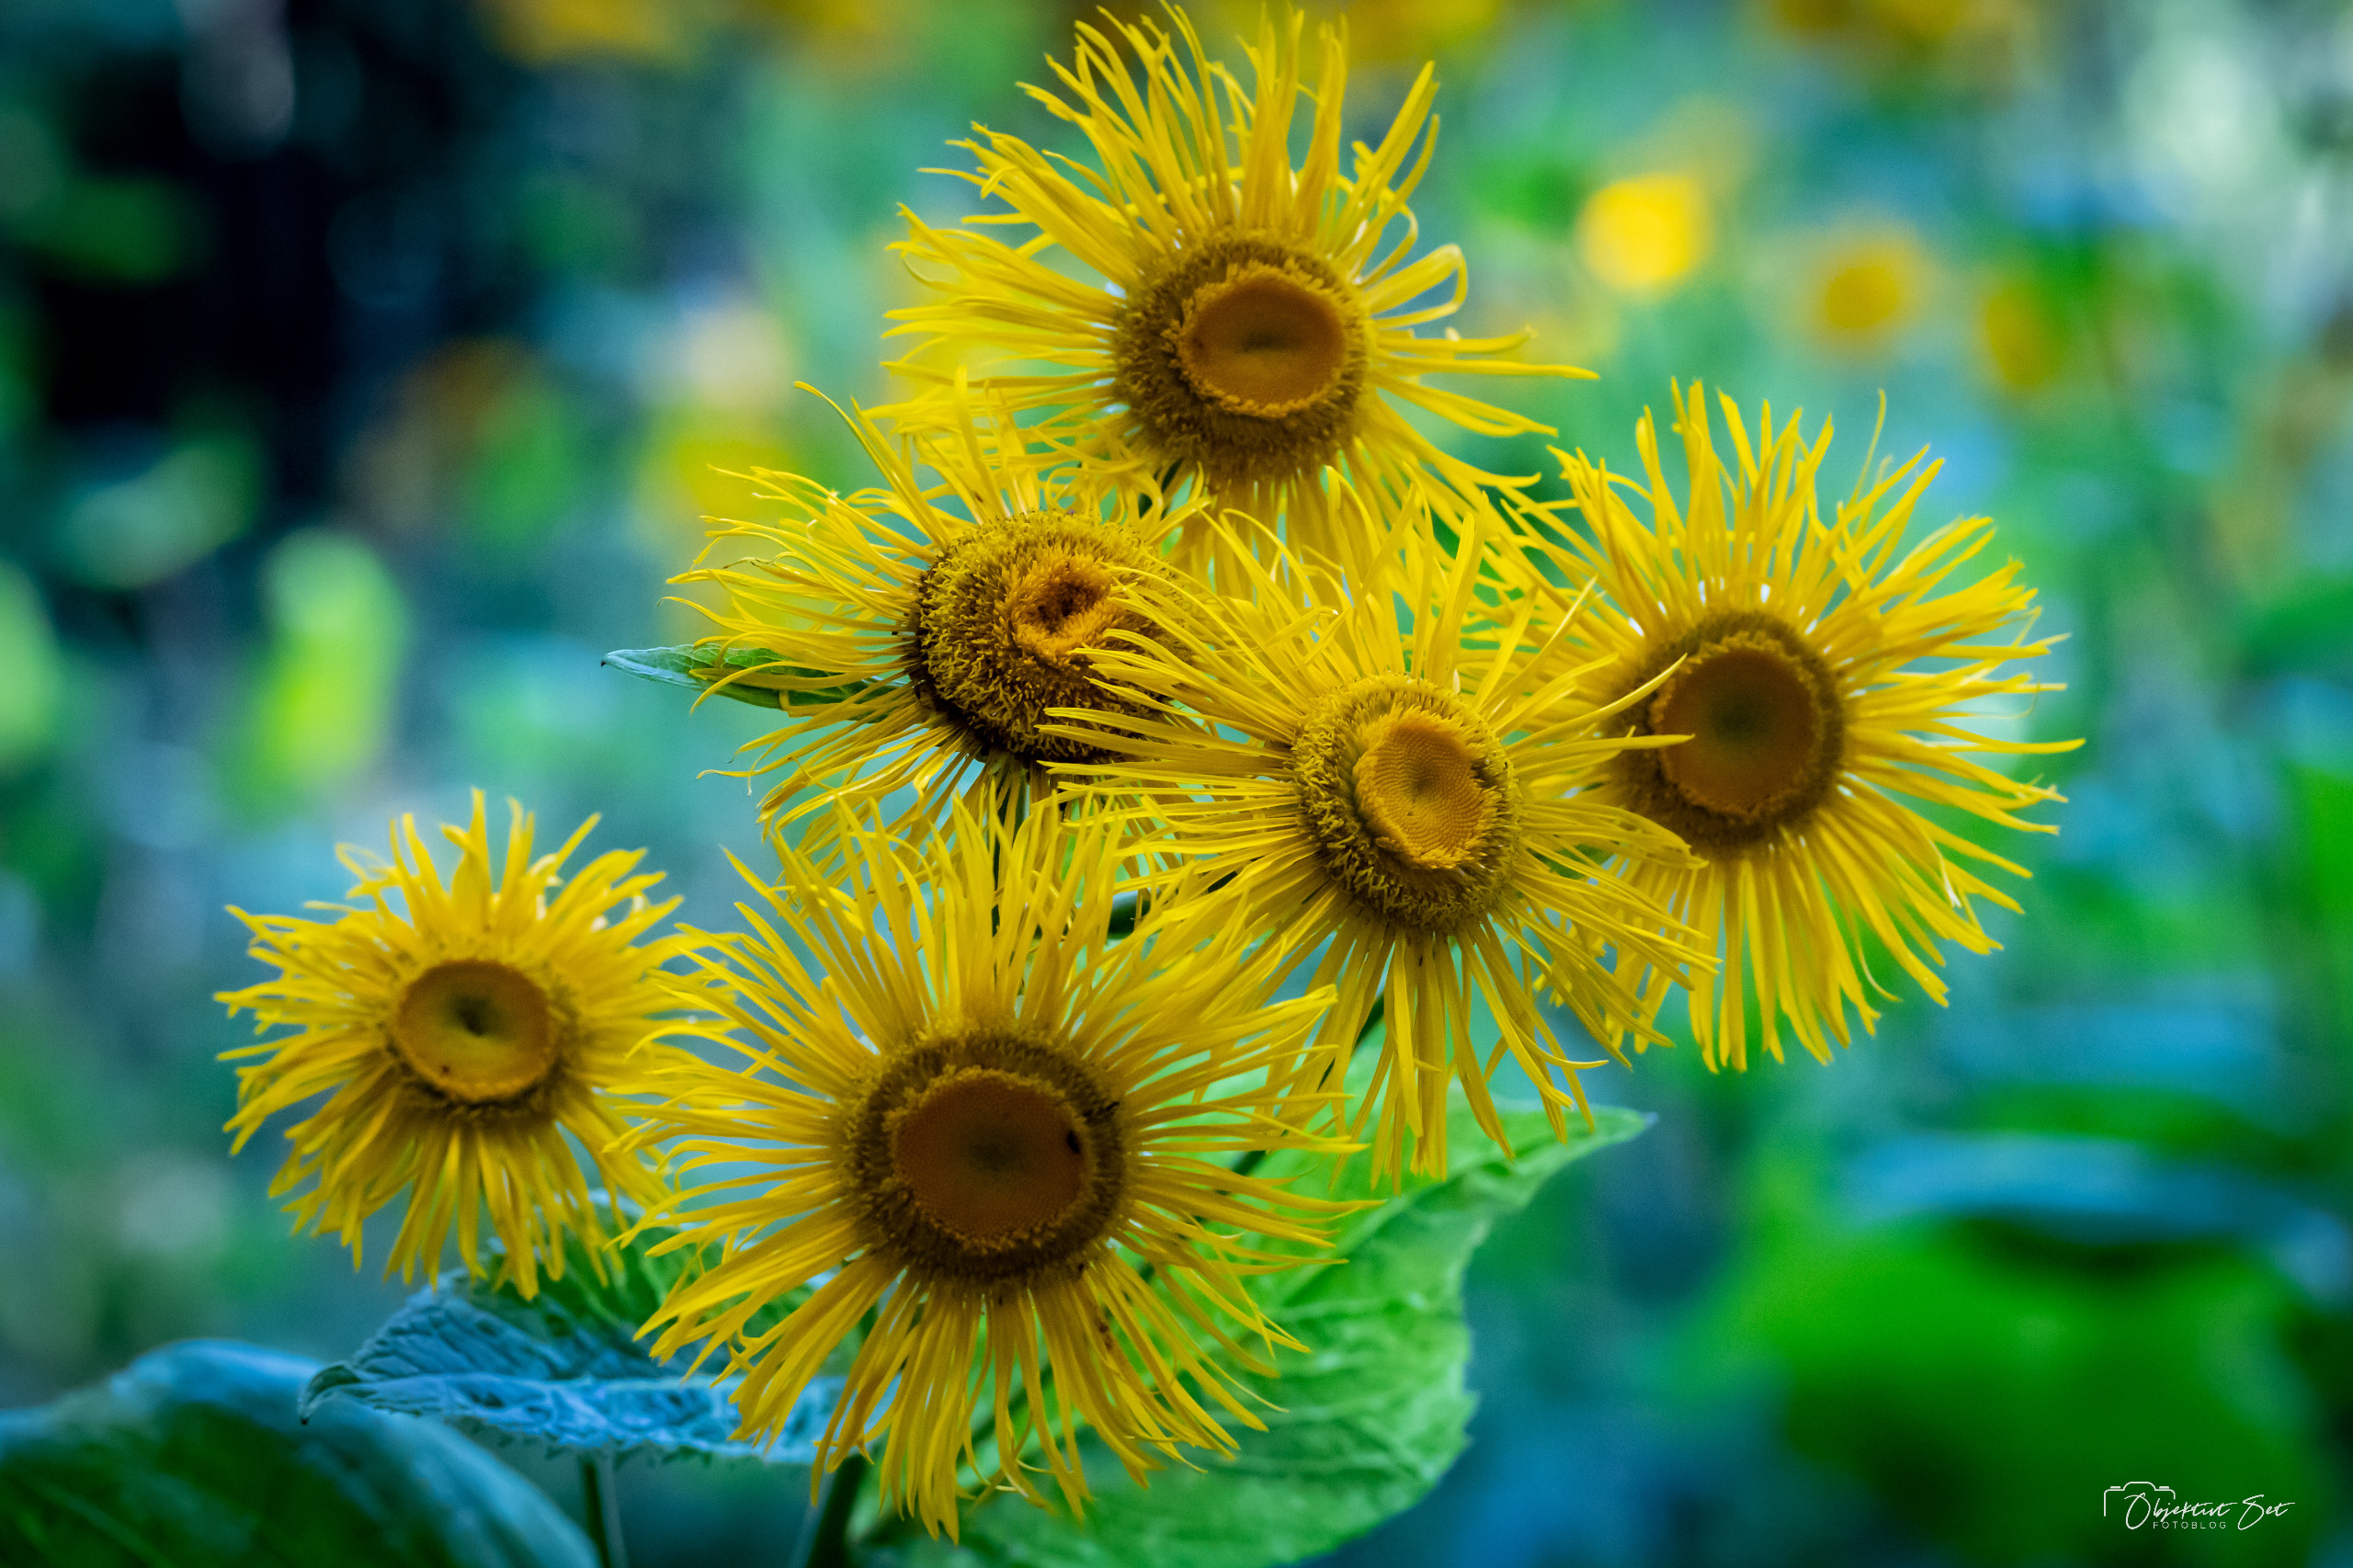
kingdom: Plantae
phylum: Tracheophyta
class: Magnoliopsida
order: Asterales
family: Asteraceae
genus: Telekia
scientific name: Telekia speciosa
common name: Tusindstråle
